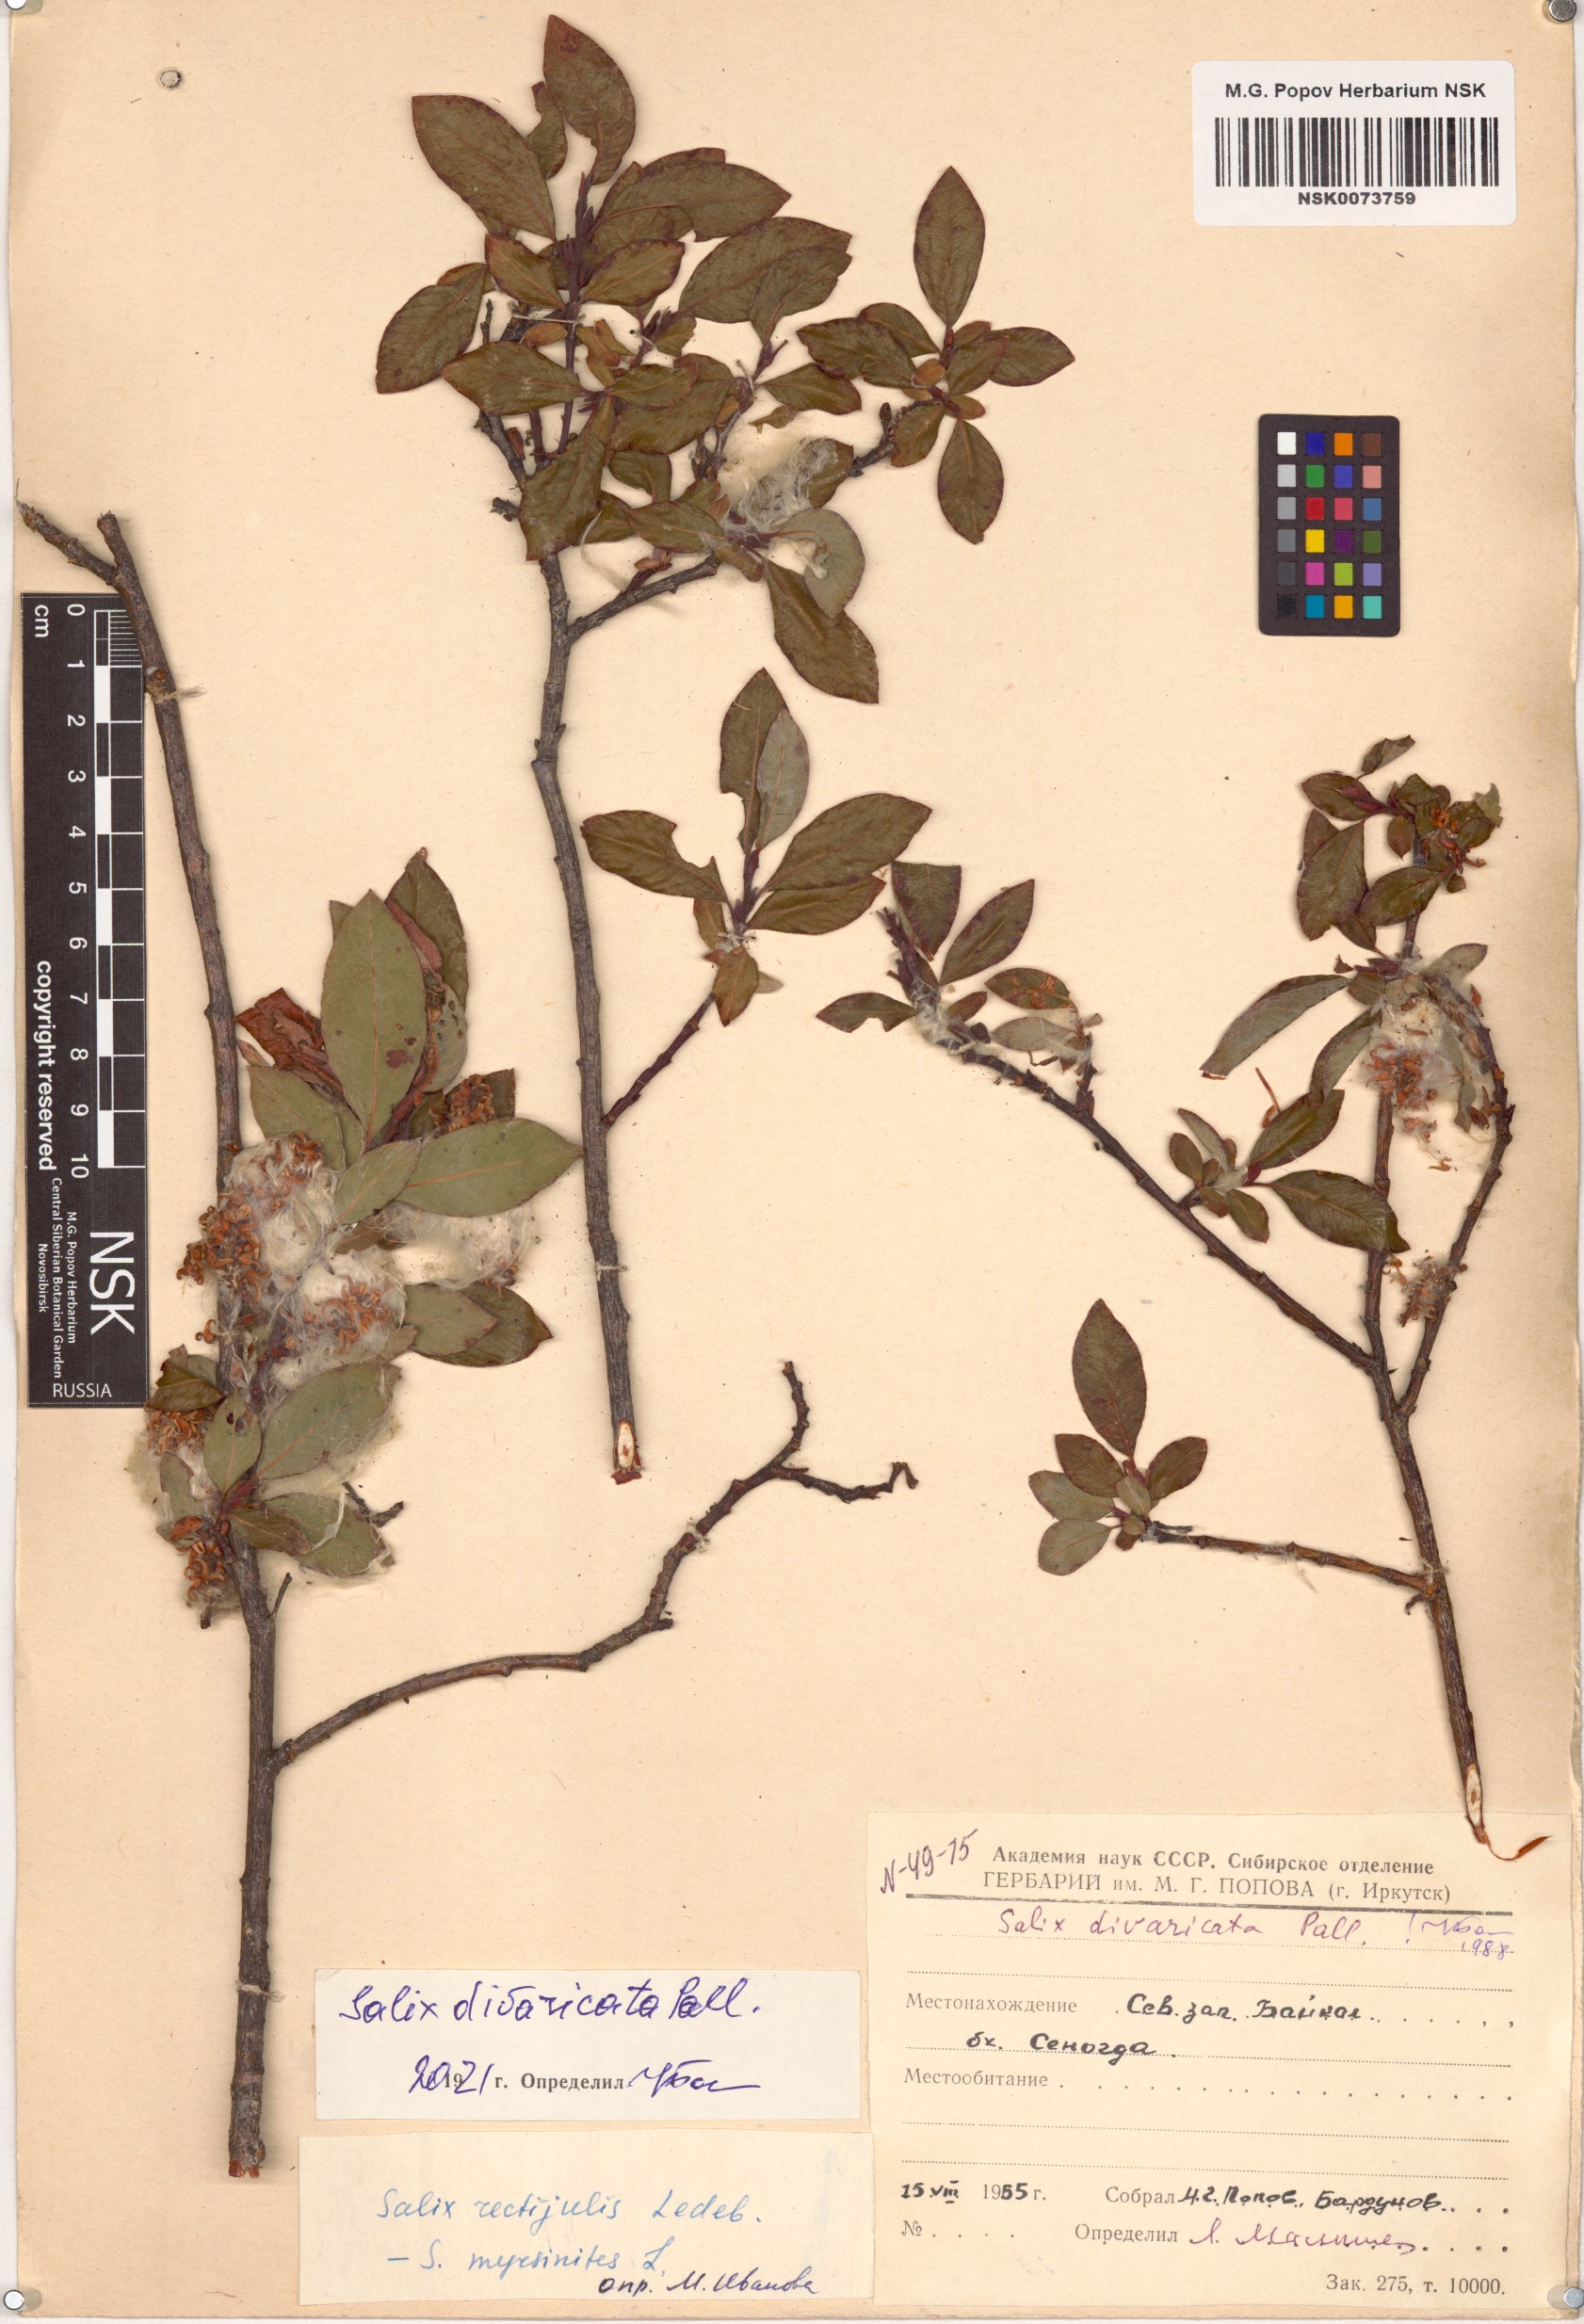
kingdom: Plantae
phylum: Tracheophyta
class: Magnoliopsida
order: Malpighiales
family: Salicaceae
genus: Salix
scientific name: Salix divaricata
